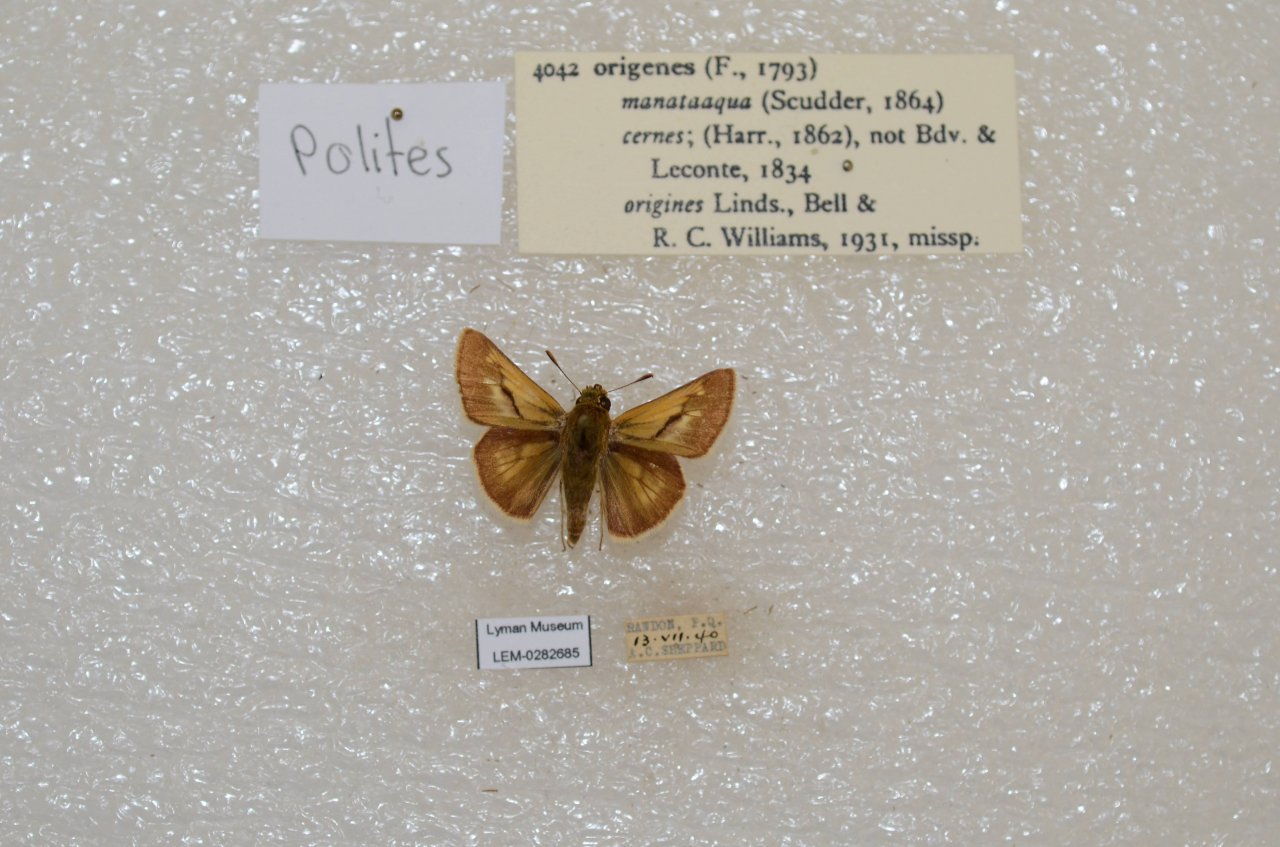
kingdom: Animalia
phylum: Arthropoda
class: Insecta
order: Lepidoptera
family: Hesperiidae
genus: Polites
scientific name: Polites
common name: Crossline Skipper
